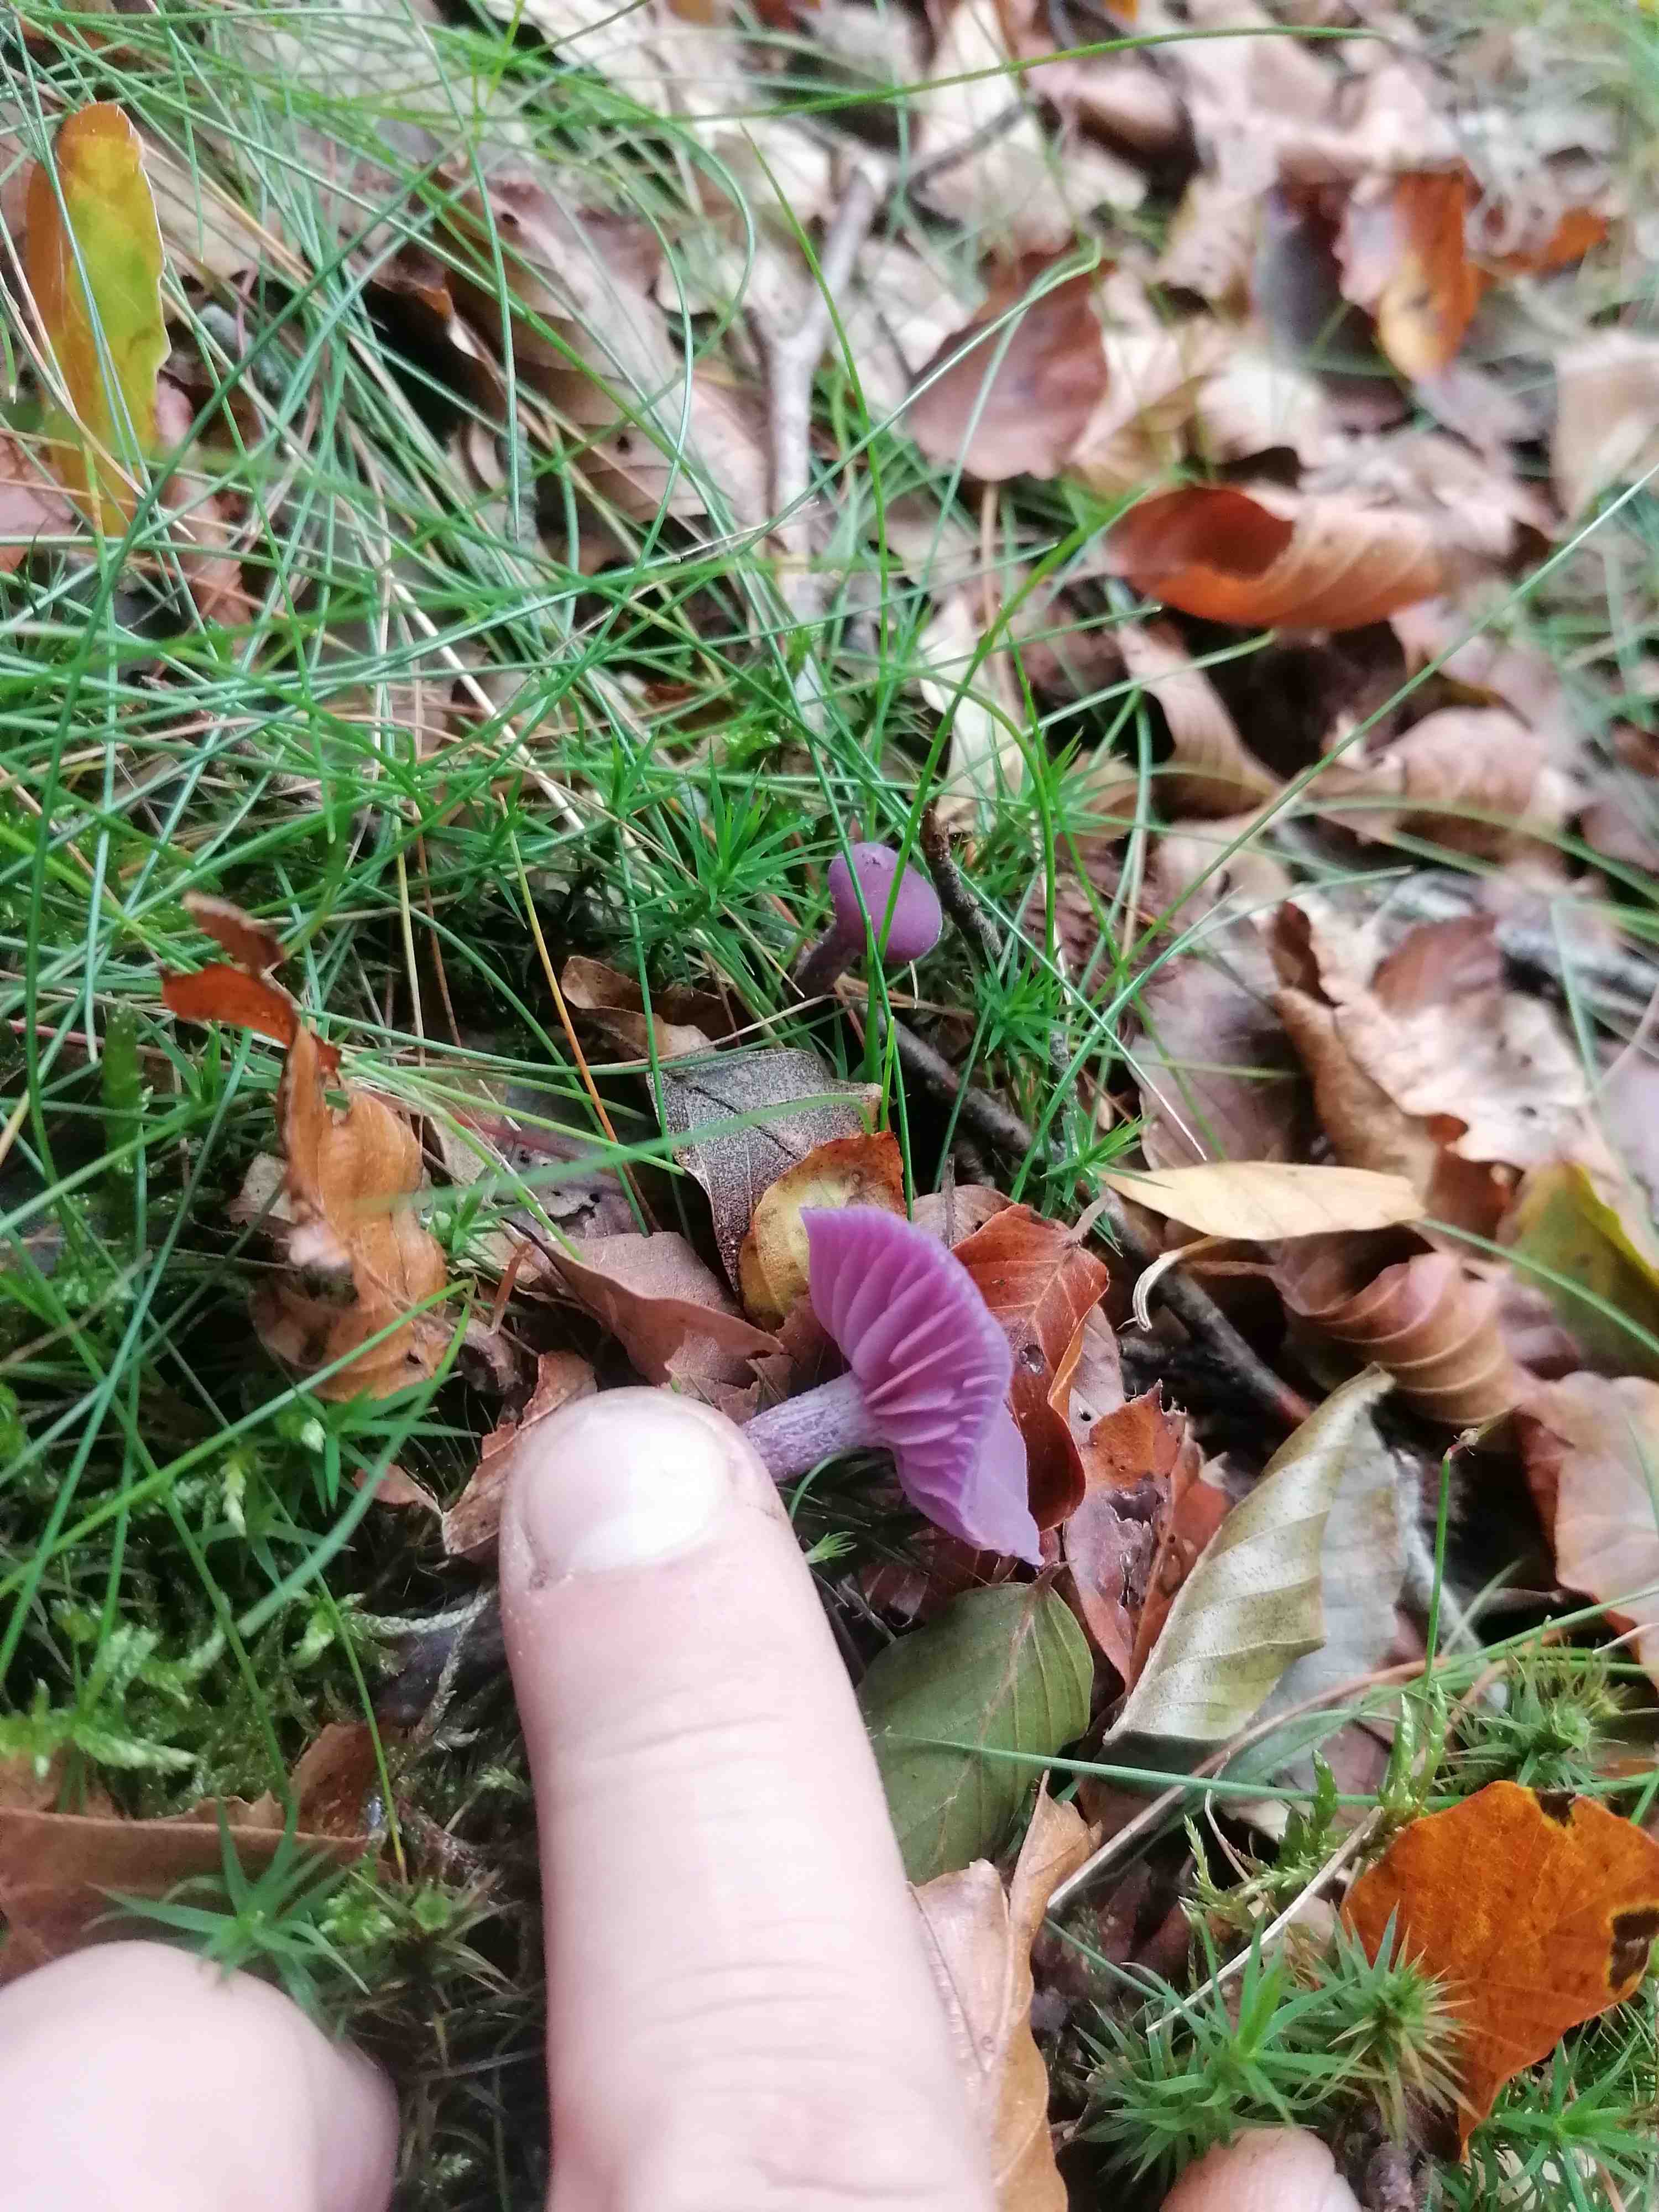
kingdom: Fungi
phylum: Basidiomycota
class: Agaricomycetes
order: Agaricales
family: Hydnangiaceae
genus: Laccaria
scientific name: Laccaria amethystina
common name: violet ametysthat
